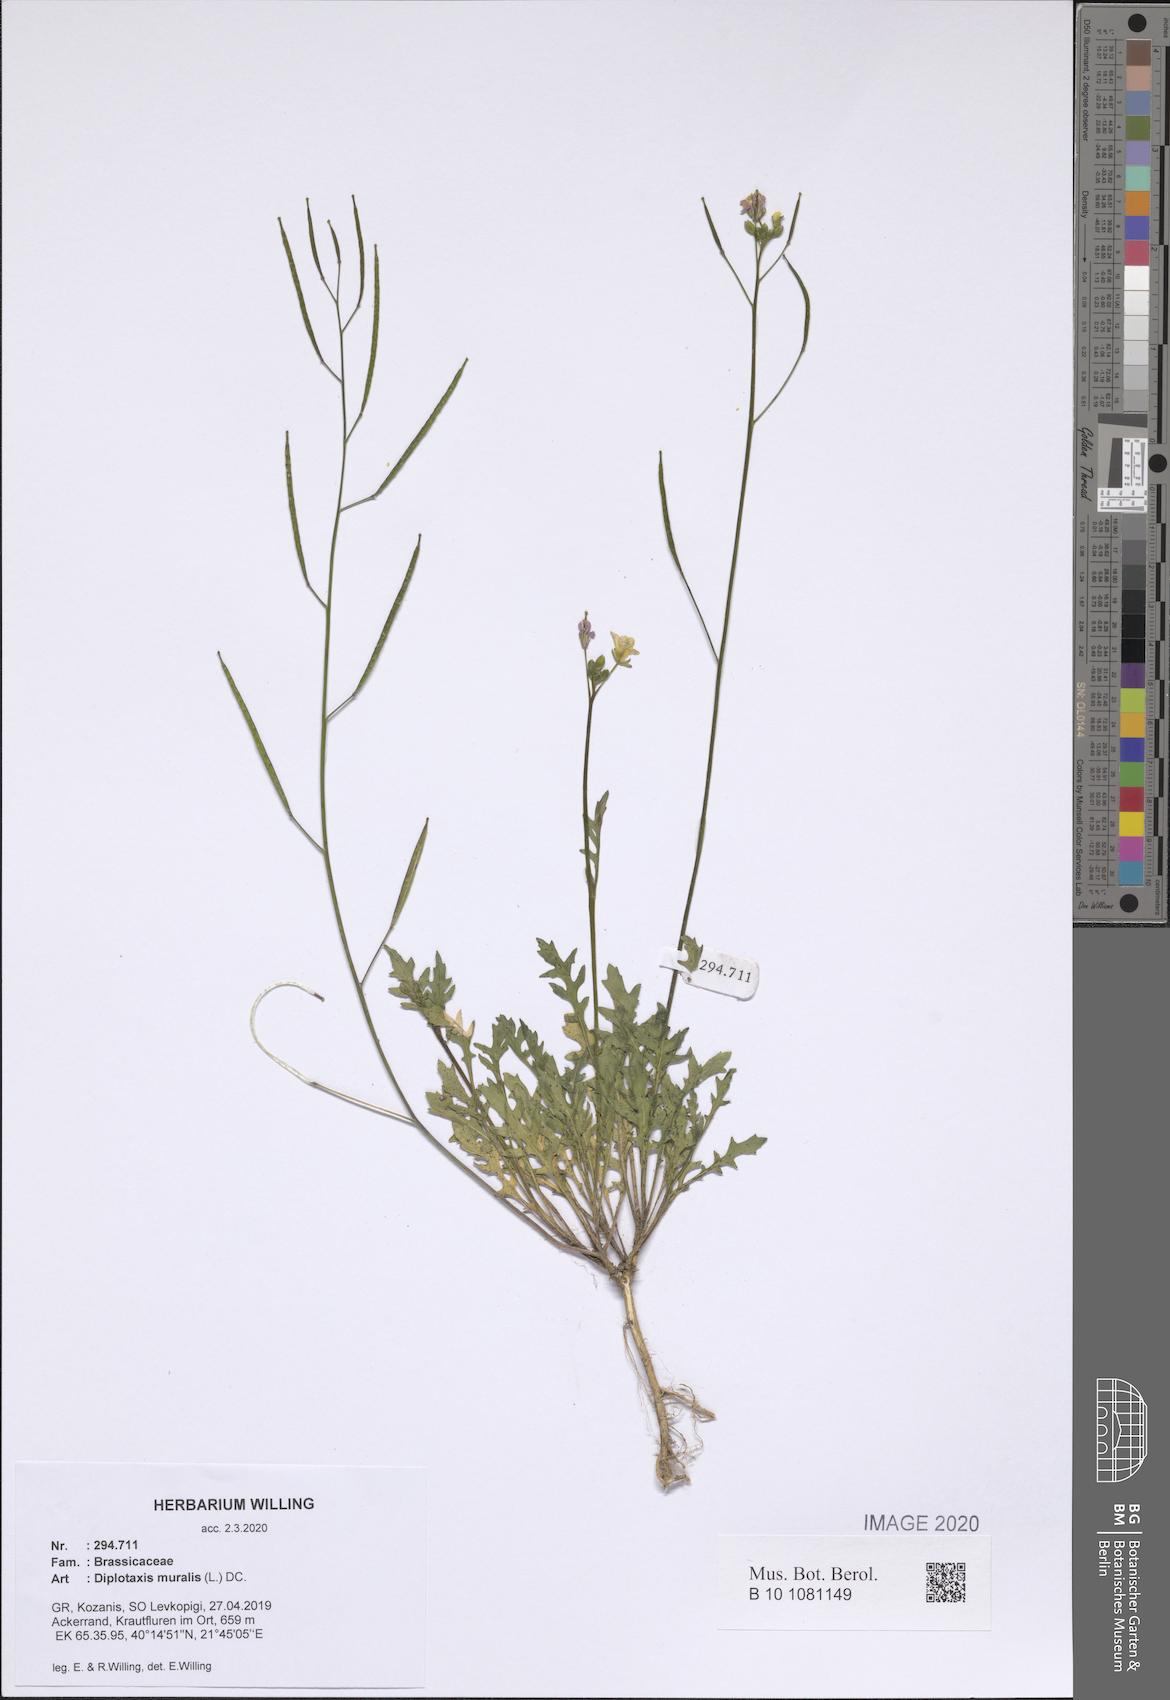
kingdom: Plantae
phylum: Tracheophyta
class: Magnoliopsida
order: Brassicales
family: Brassicaceae
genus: Diplotaxis
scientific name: Diplotaxis muralis
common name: Annual wall-rocket
